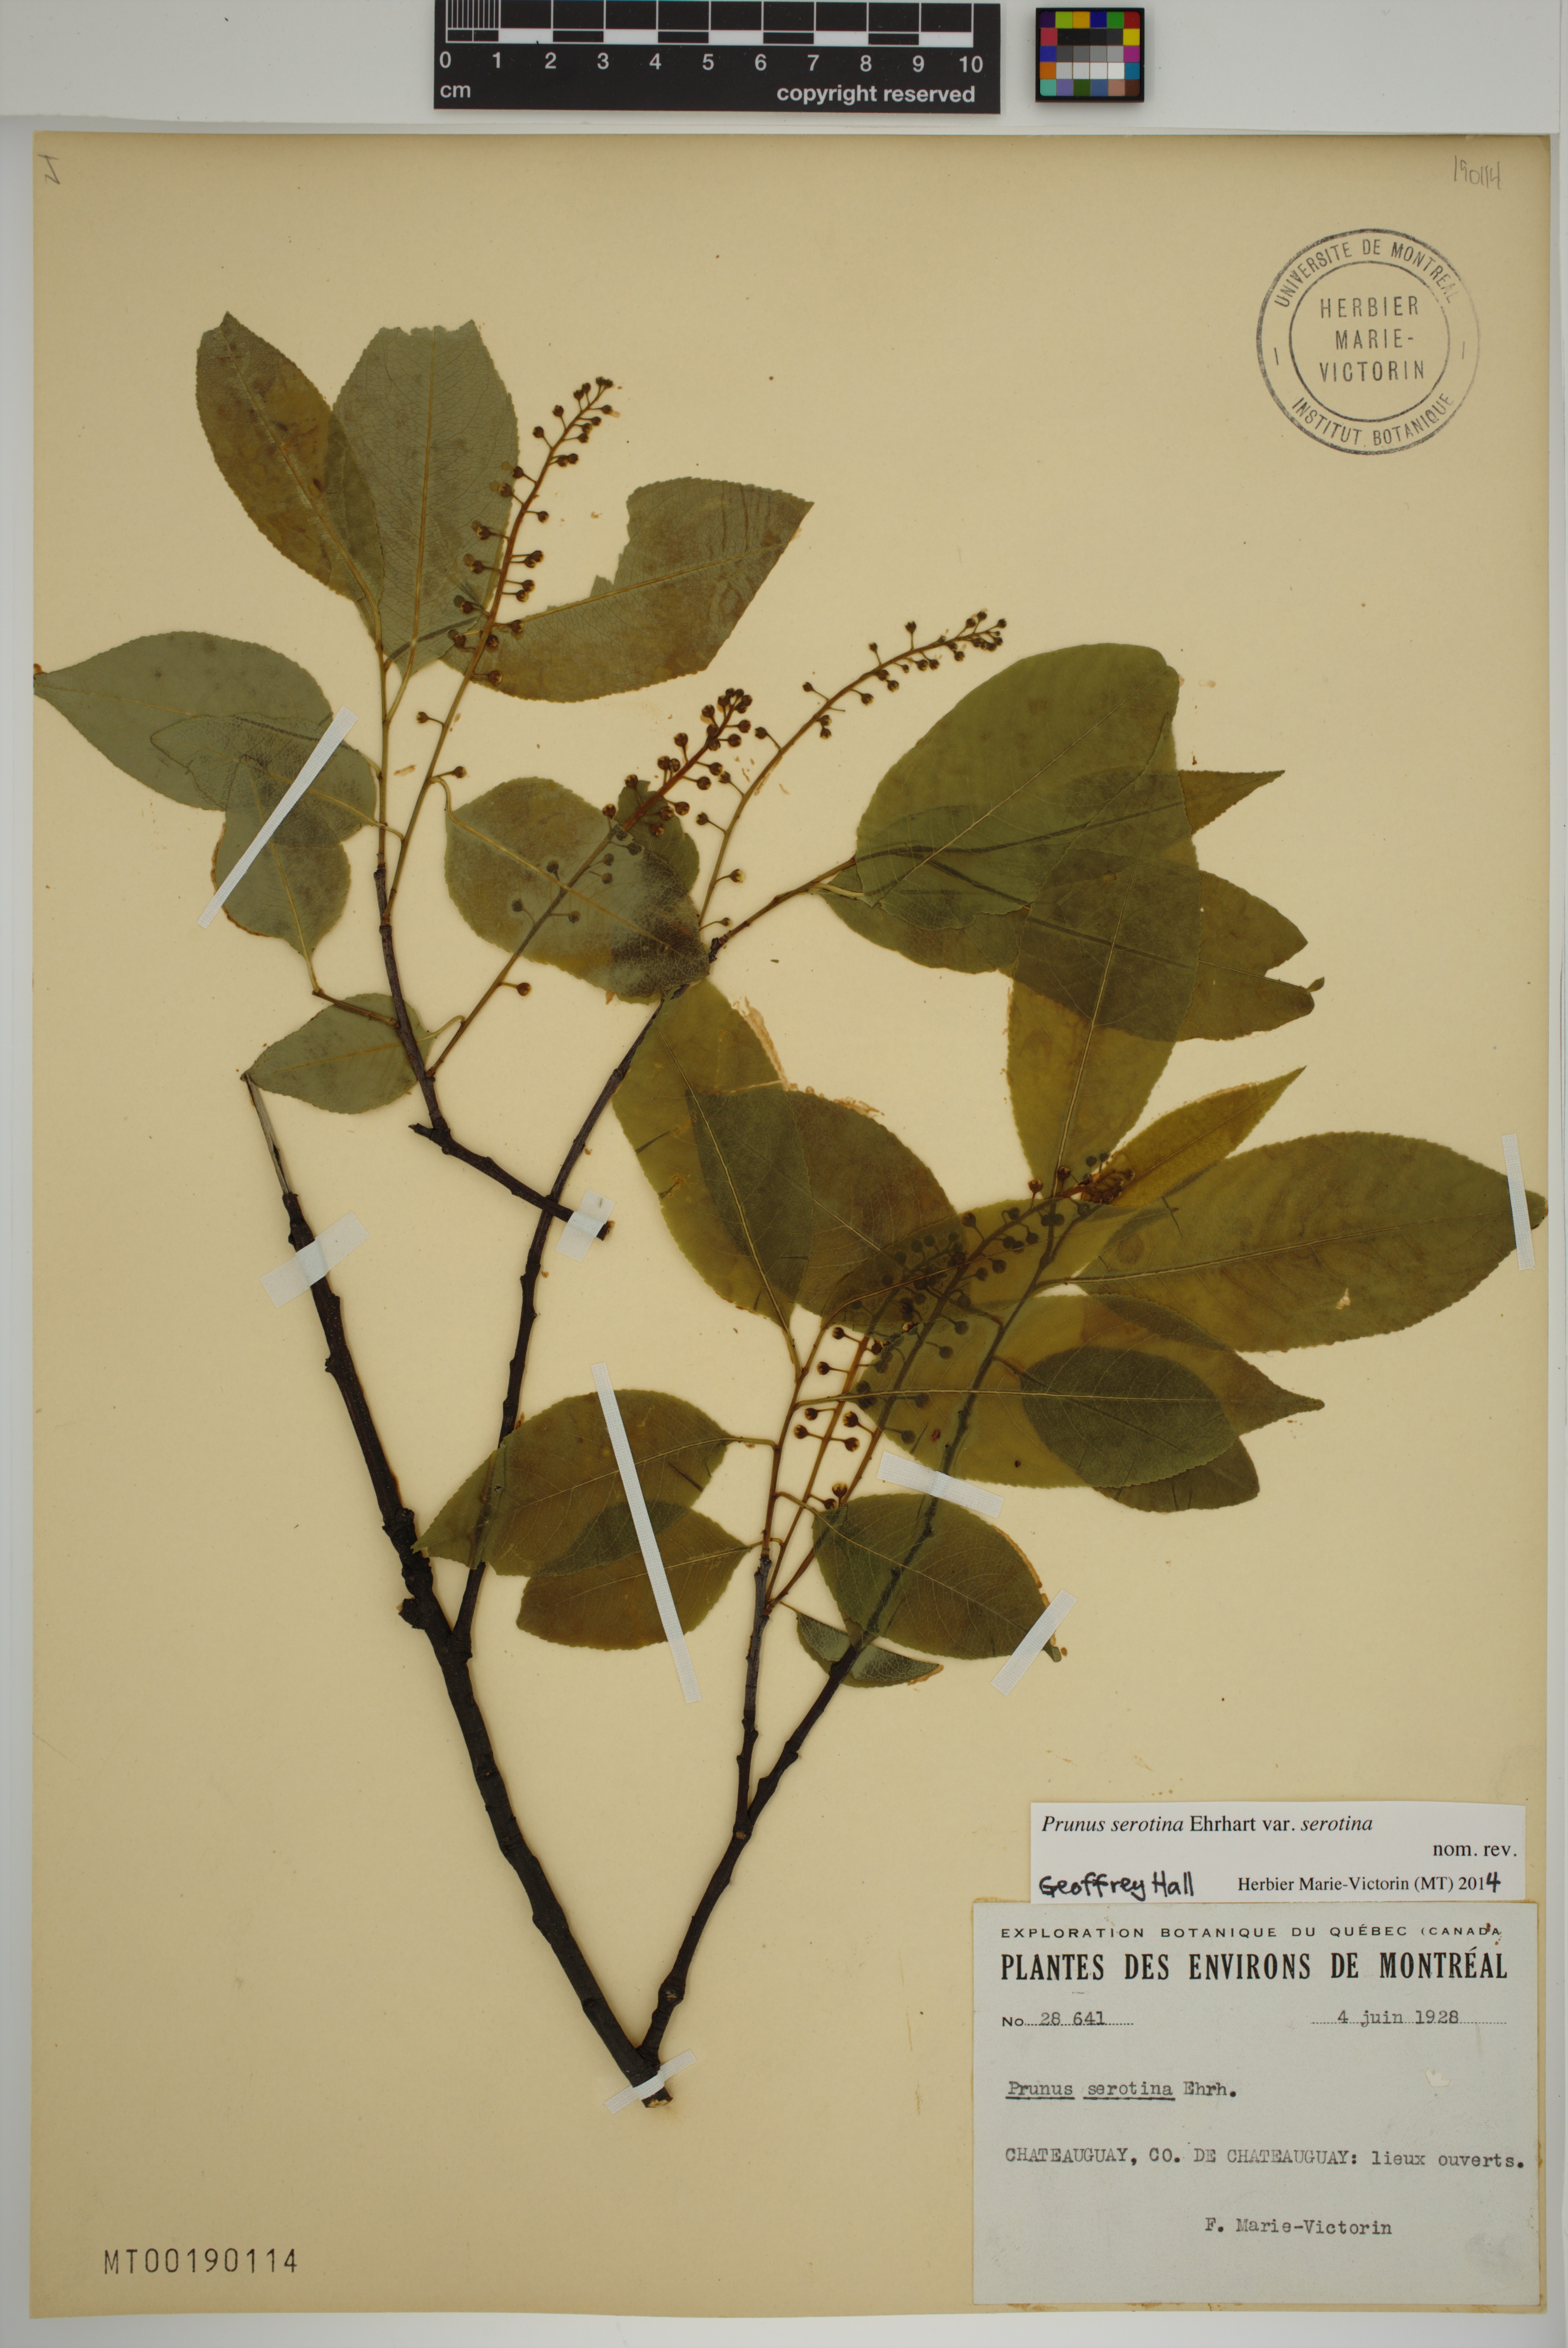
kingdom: Plantae
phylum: Tracheophyta
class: Magnoliopsida
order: Rosales
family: Rosaceae
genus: Prunus
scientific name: Prunus serotina
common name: Black cherry
